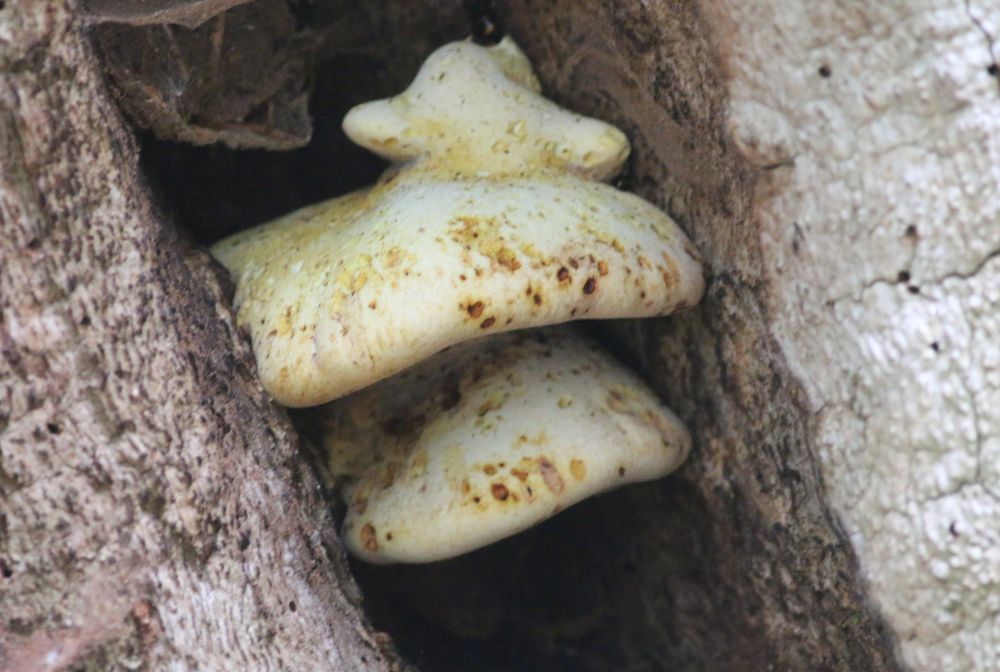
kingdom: Fungi
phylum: Basidiomycota
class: Agaricomycetes
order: Polyporales
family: Fomitopsidaceae
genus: Buglossoporus
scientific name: Buglossoporus quercinus
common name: egetunge
